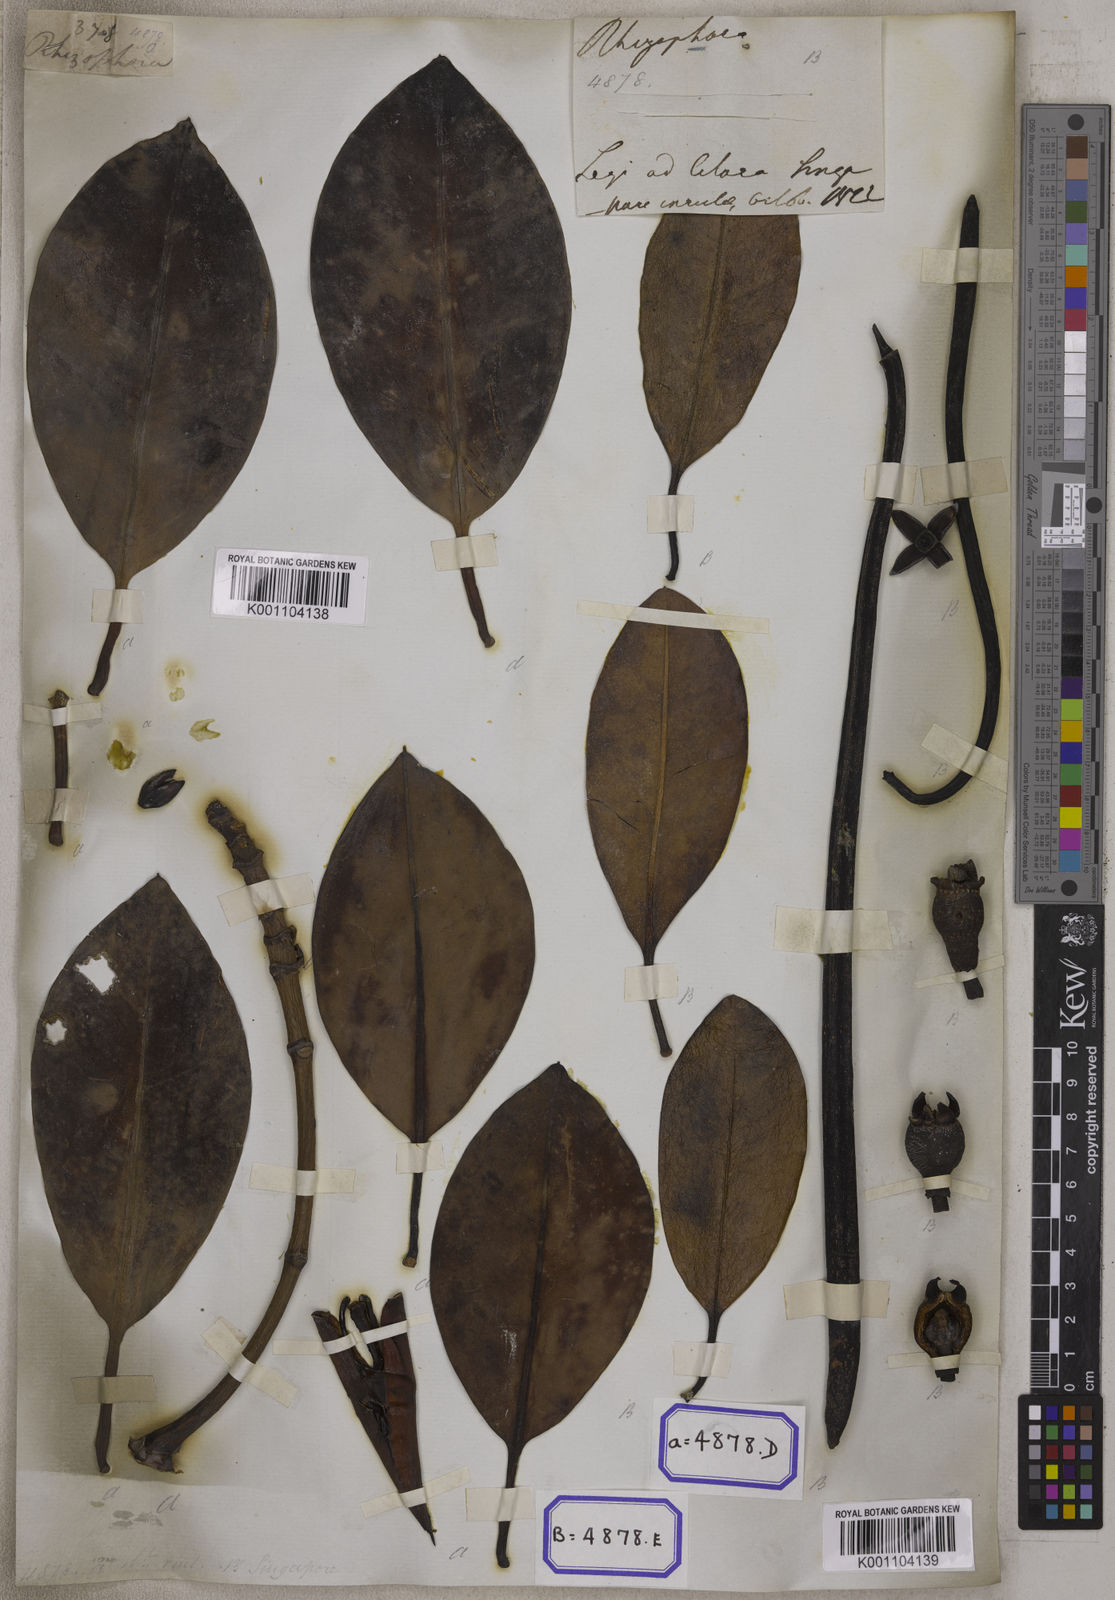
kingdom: Plantae
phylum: Tracheophyta
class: Magnoliopsida
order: Malpighiales
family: Rhizophoraceae
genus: Rhizophora
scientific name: Rhizophora
